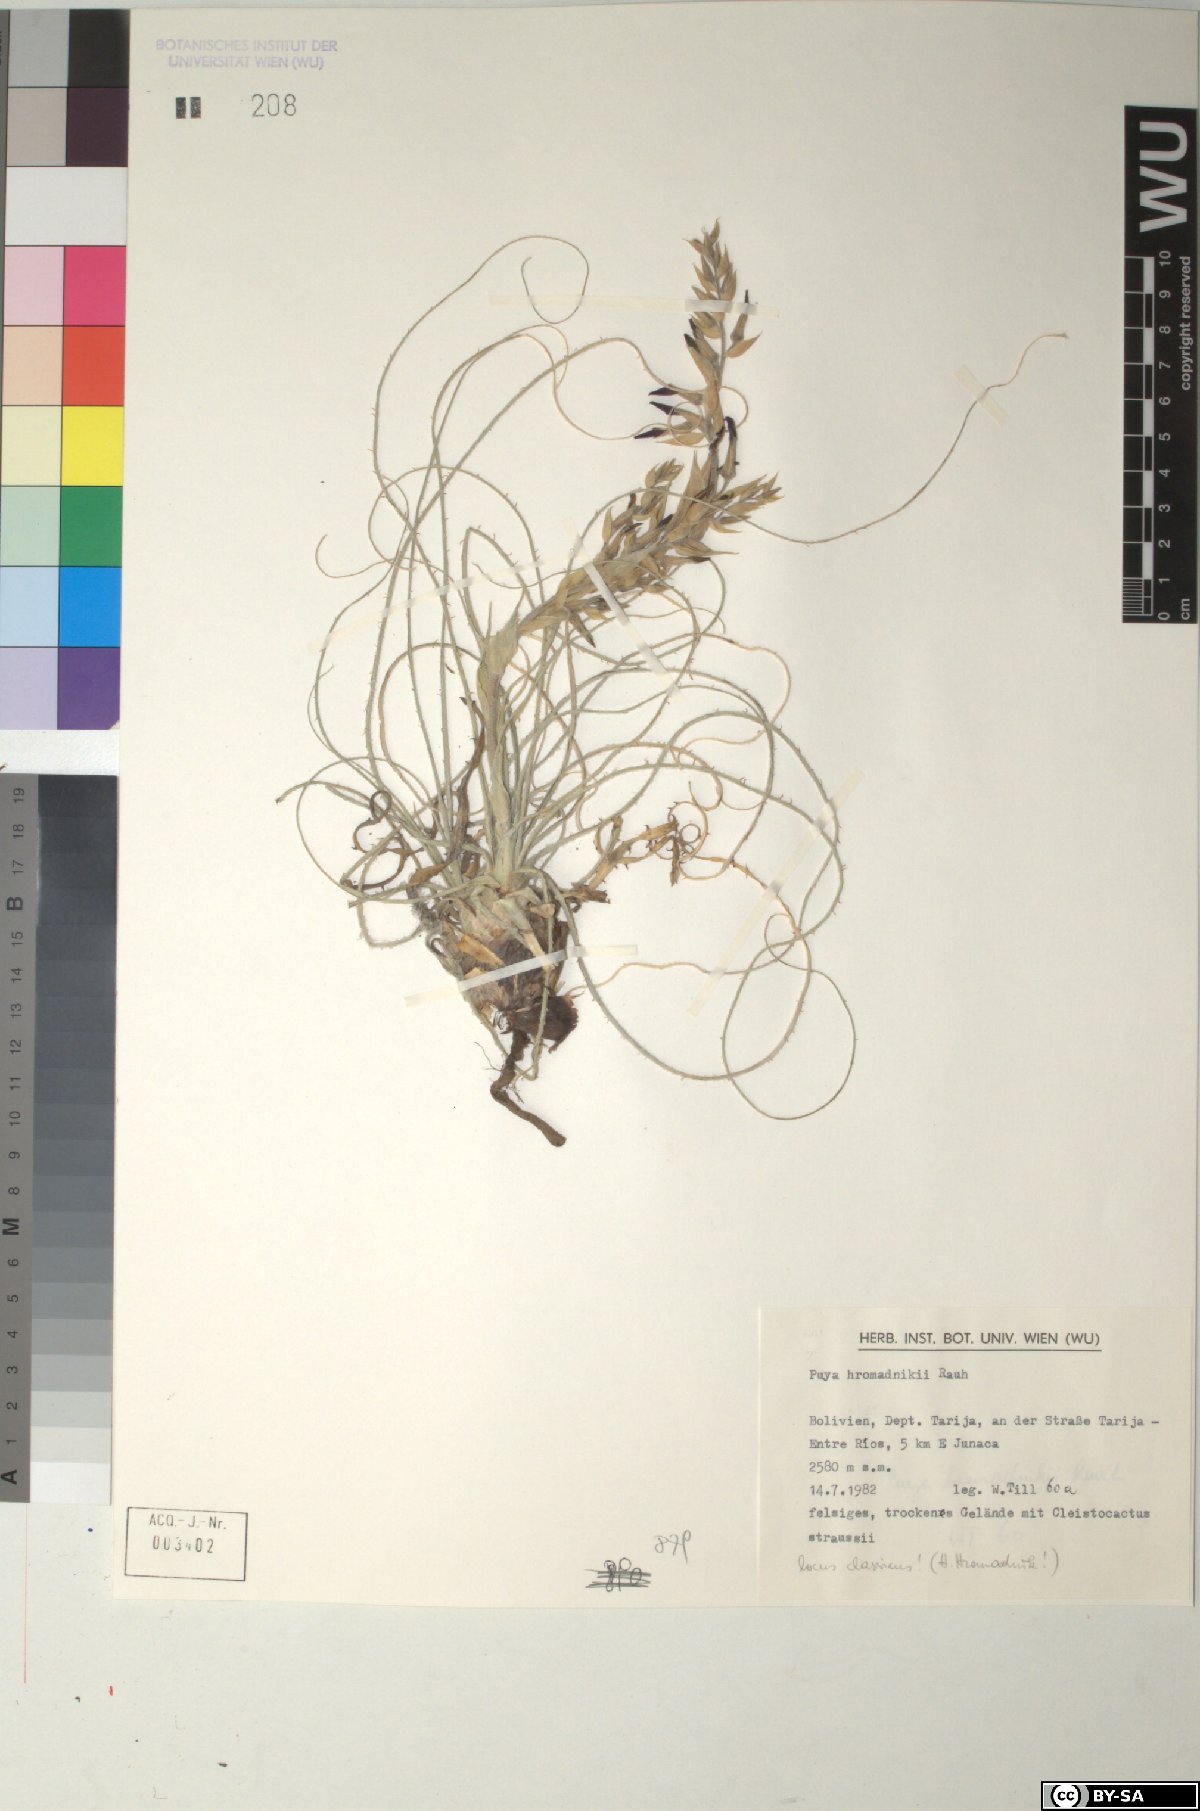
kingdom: Plantae
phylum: Tracheophyta
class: Liliopsida
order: Poales
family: Bromeliaceae
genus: Puya
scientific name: Puya hromadnikii
